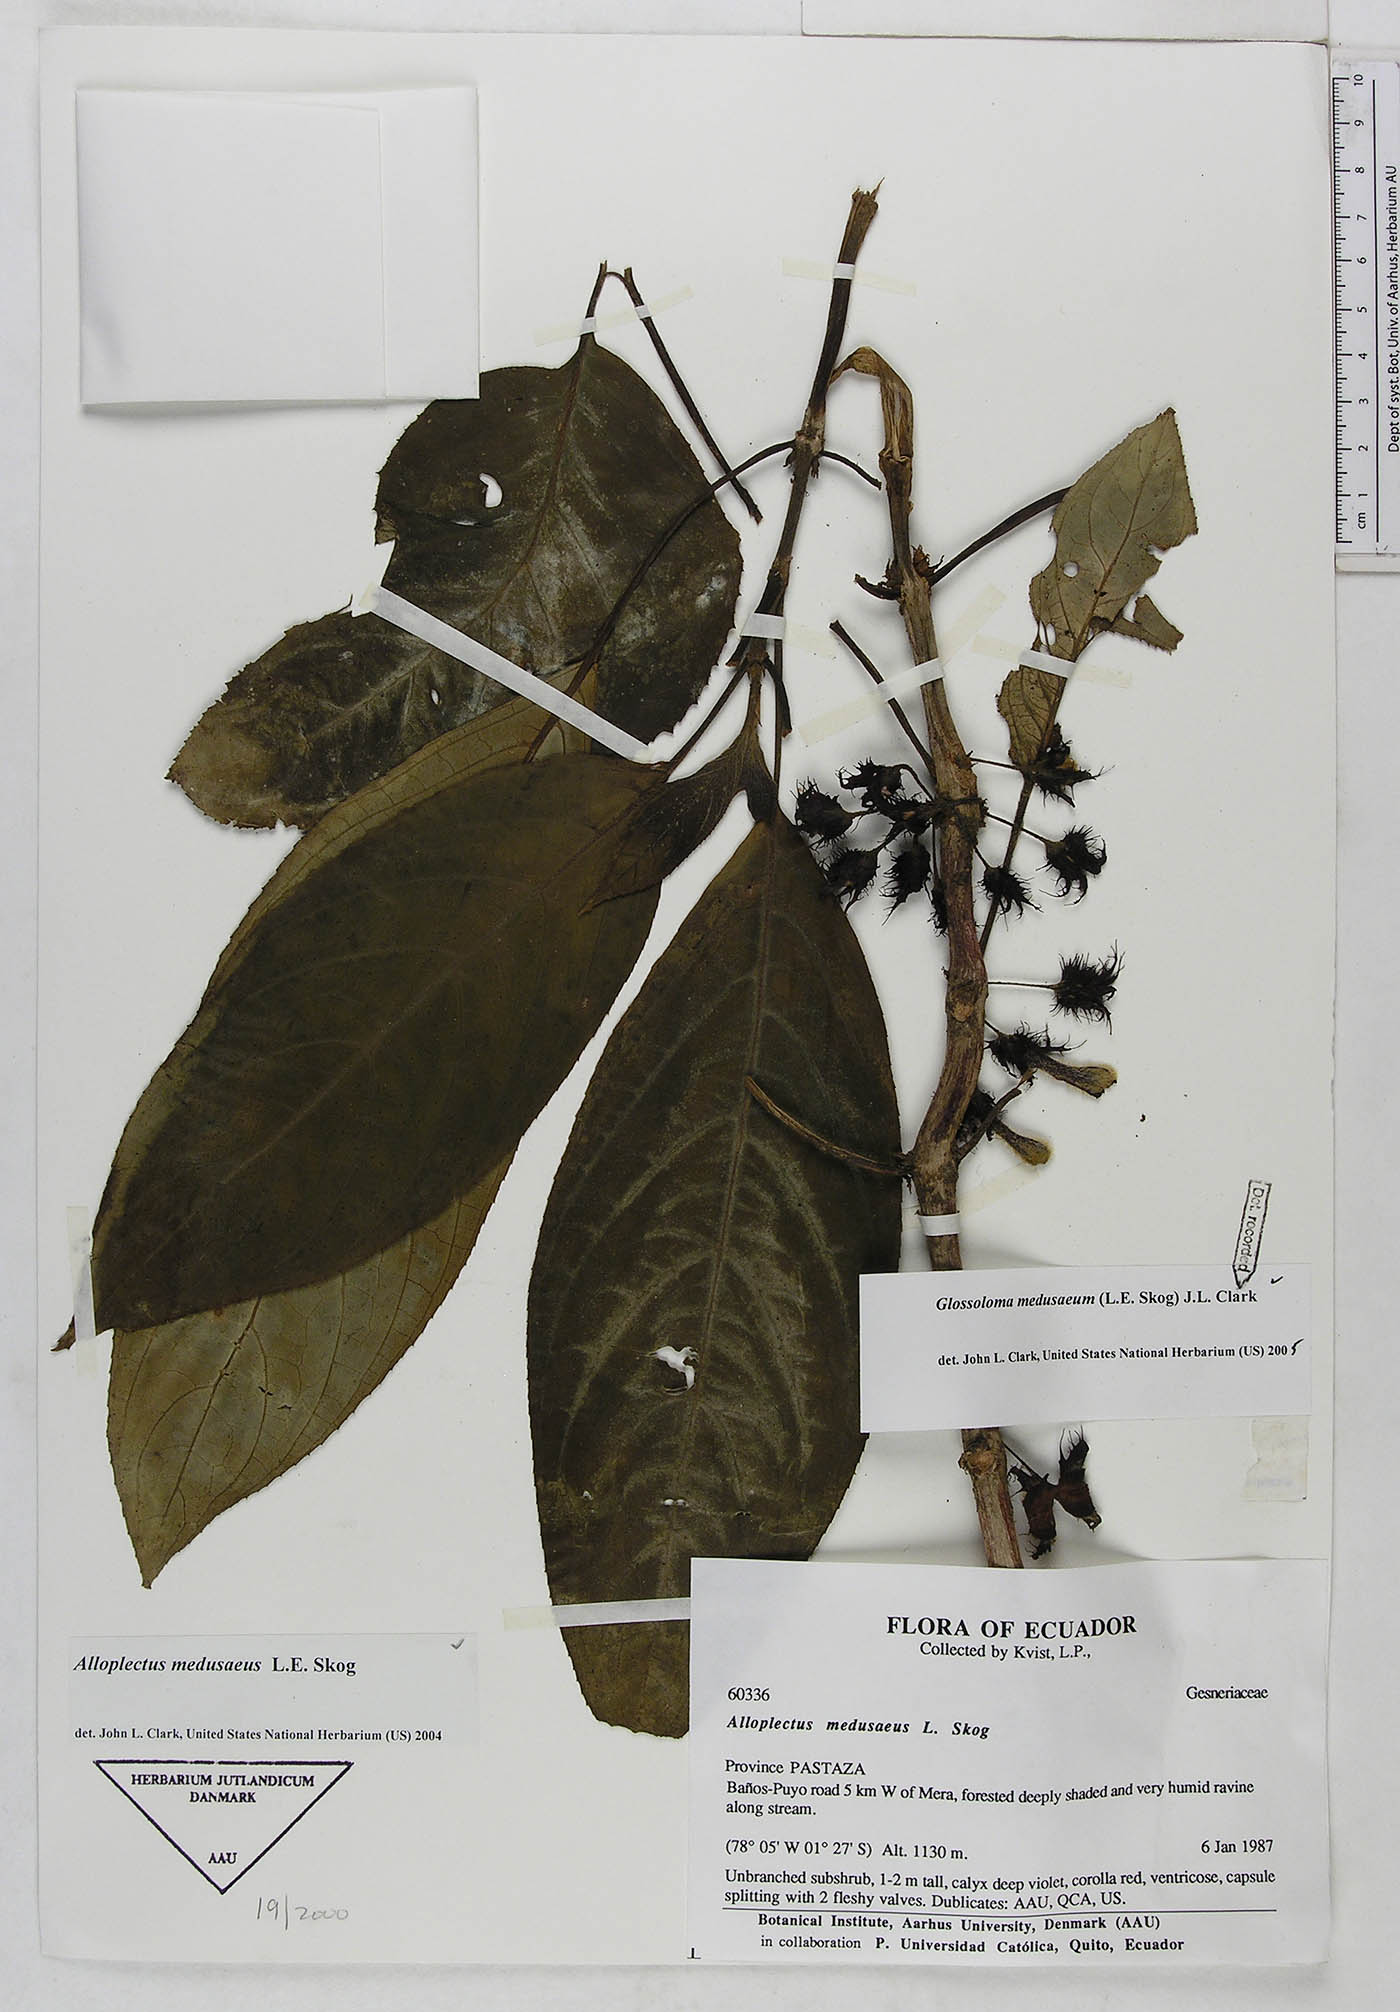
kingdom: Plantae
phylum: Tracheophyta
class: Magnoliopsida
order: Lamiales
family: Gesneriaceae
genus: Glossoloma
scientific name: Glossoloma medusaeum
